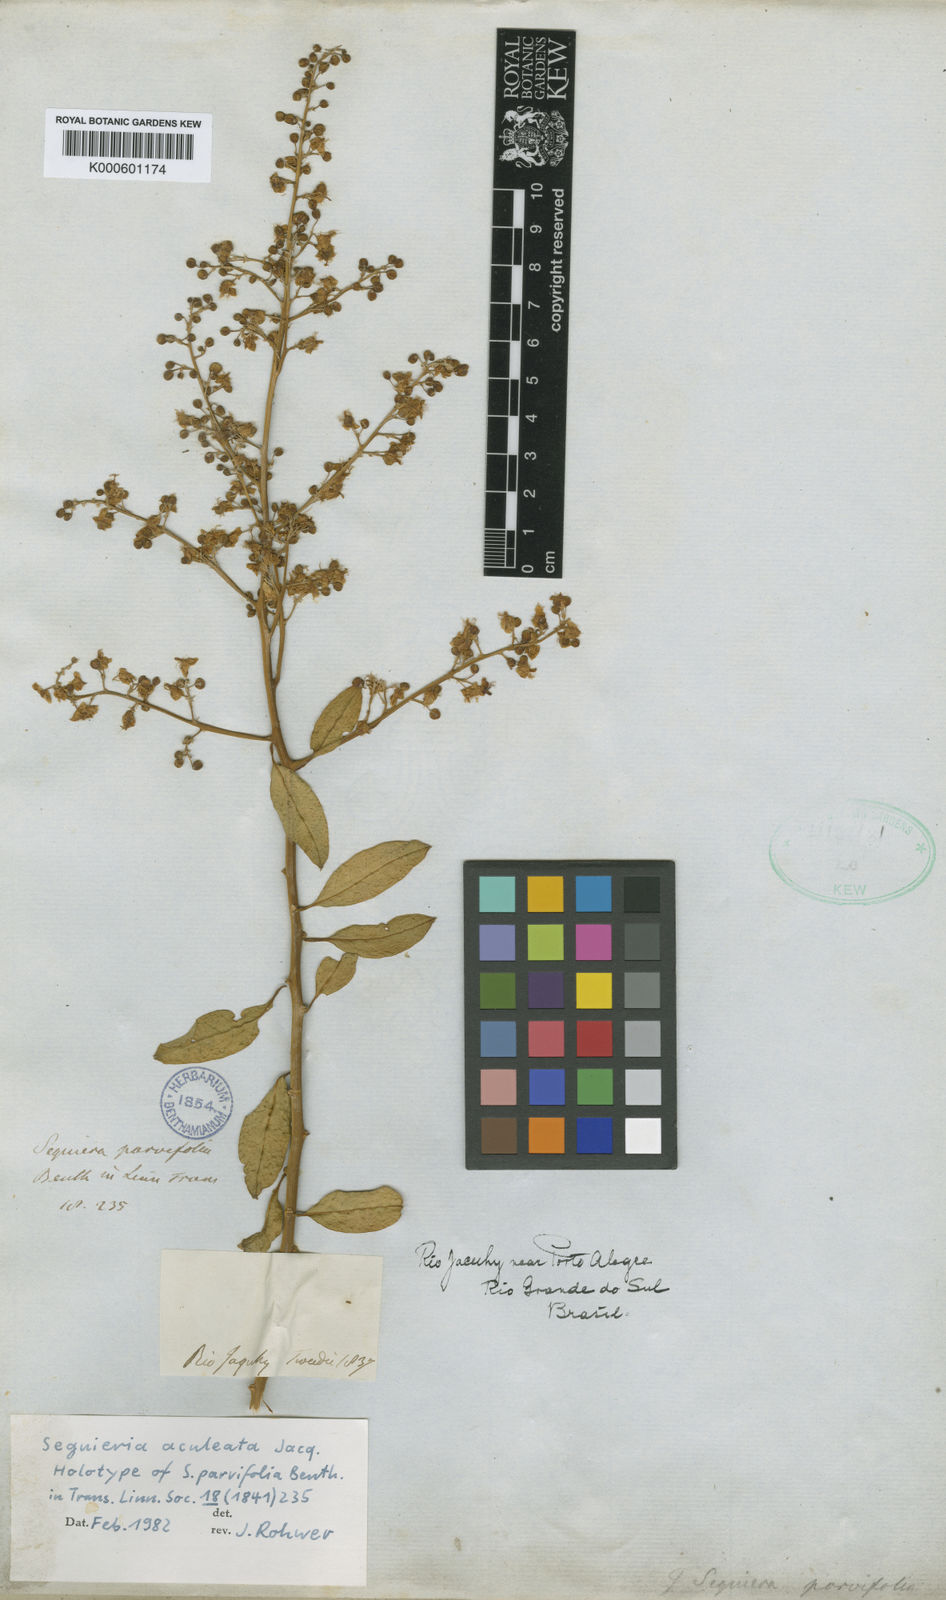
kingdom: Plantae
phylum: Tracheophyta
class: Magnoliopsida
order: Caryophyllales
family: Phytolaccaceae
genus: Seguieria
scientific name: Seguieria aculeata
